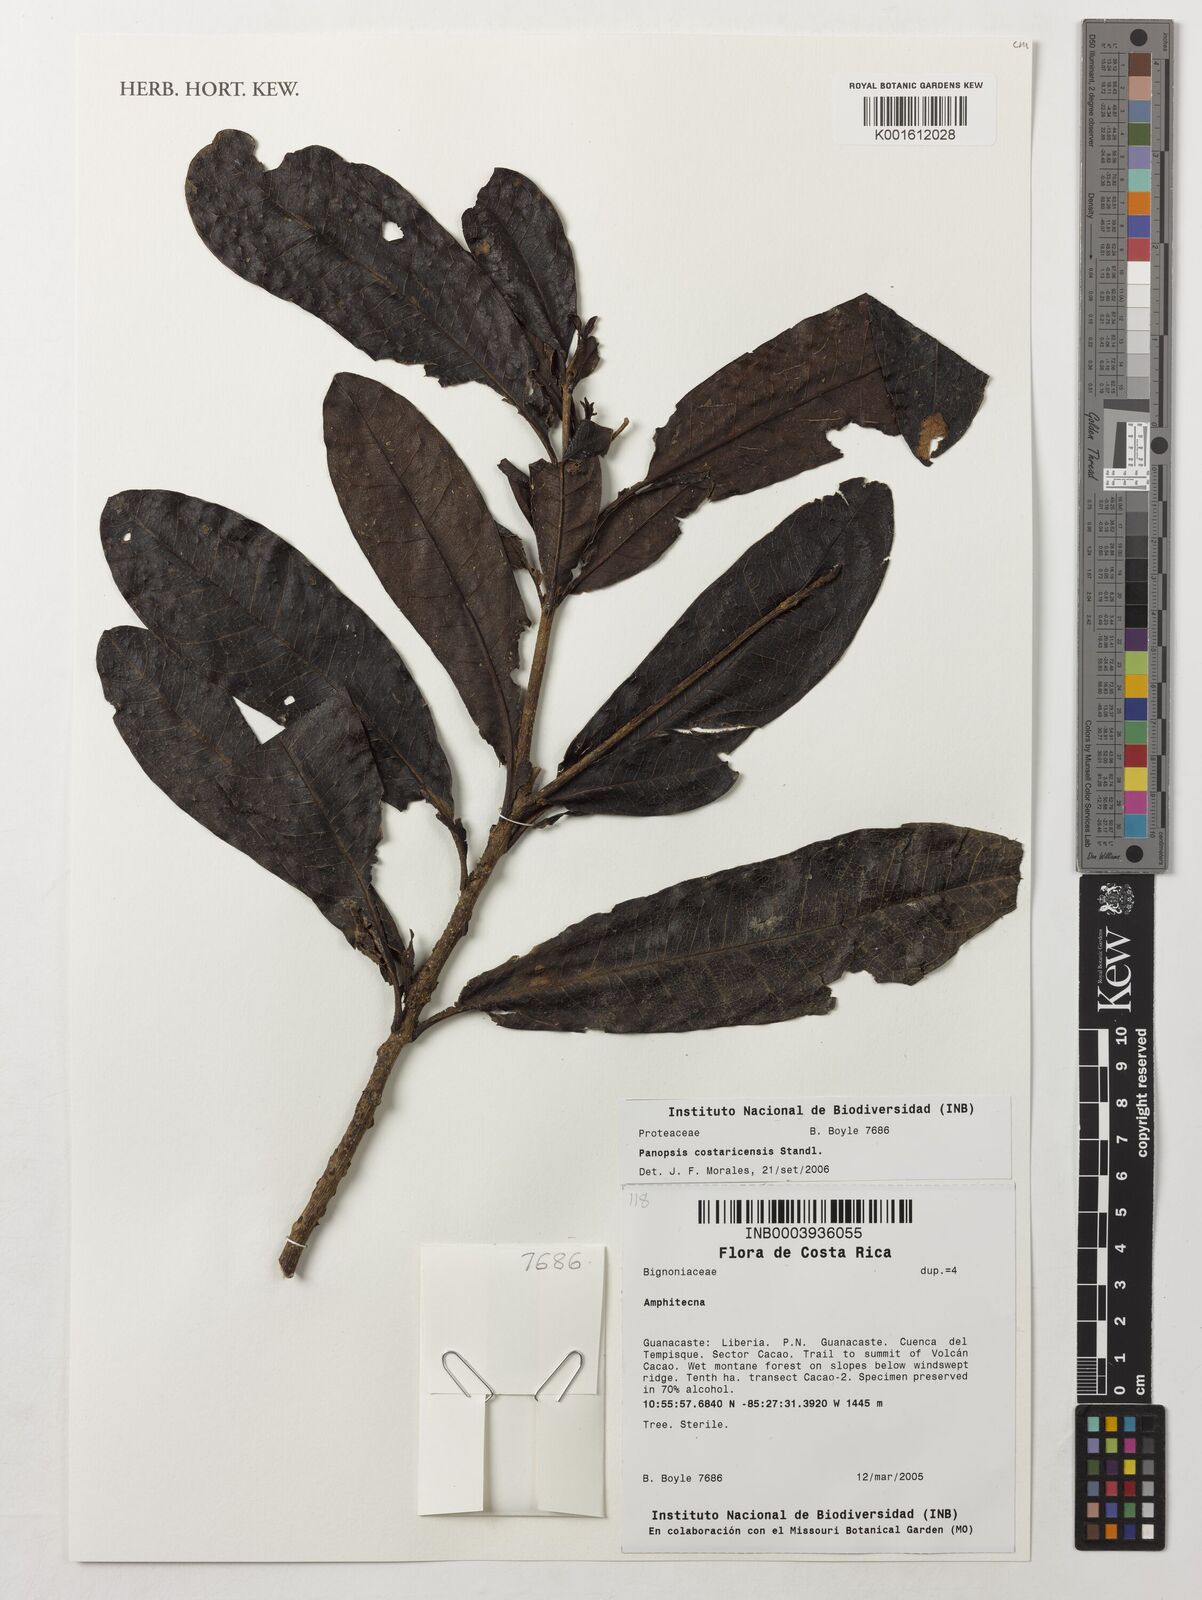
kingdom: Plantae
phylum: Tracheophyta
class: Magnoliopsida
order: Proteales
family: Proteaceae
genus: Panopsis
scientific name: Panopsis costaricensis
